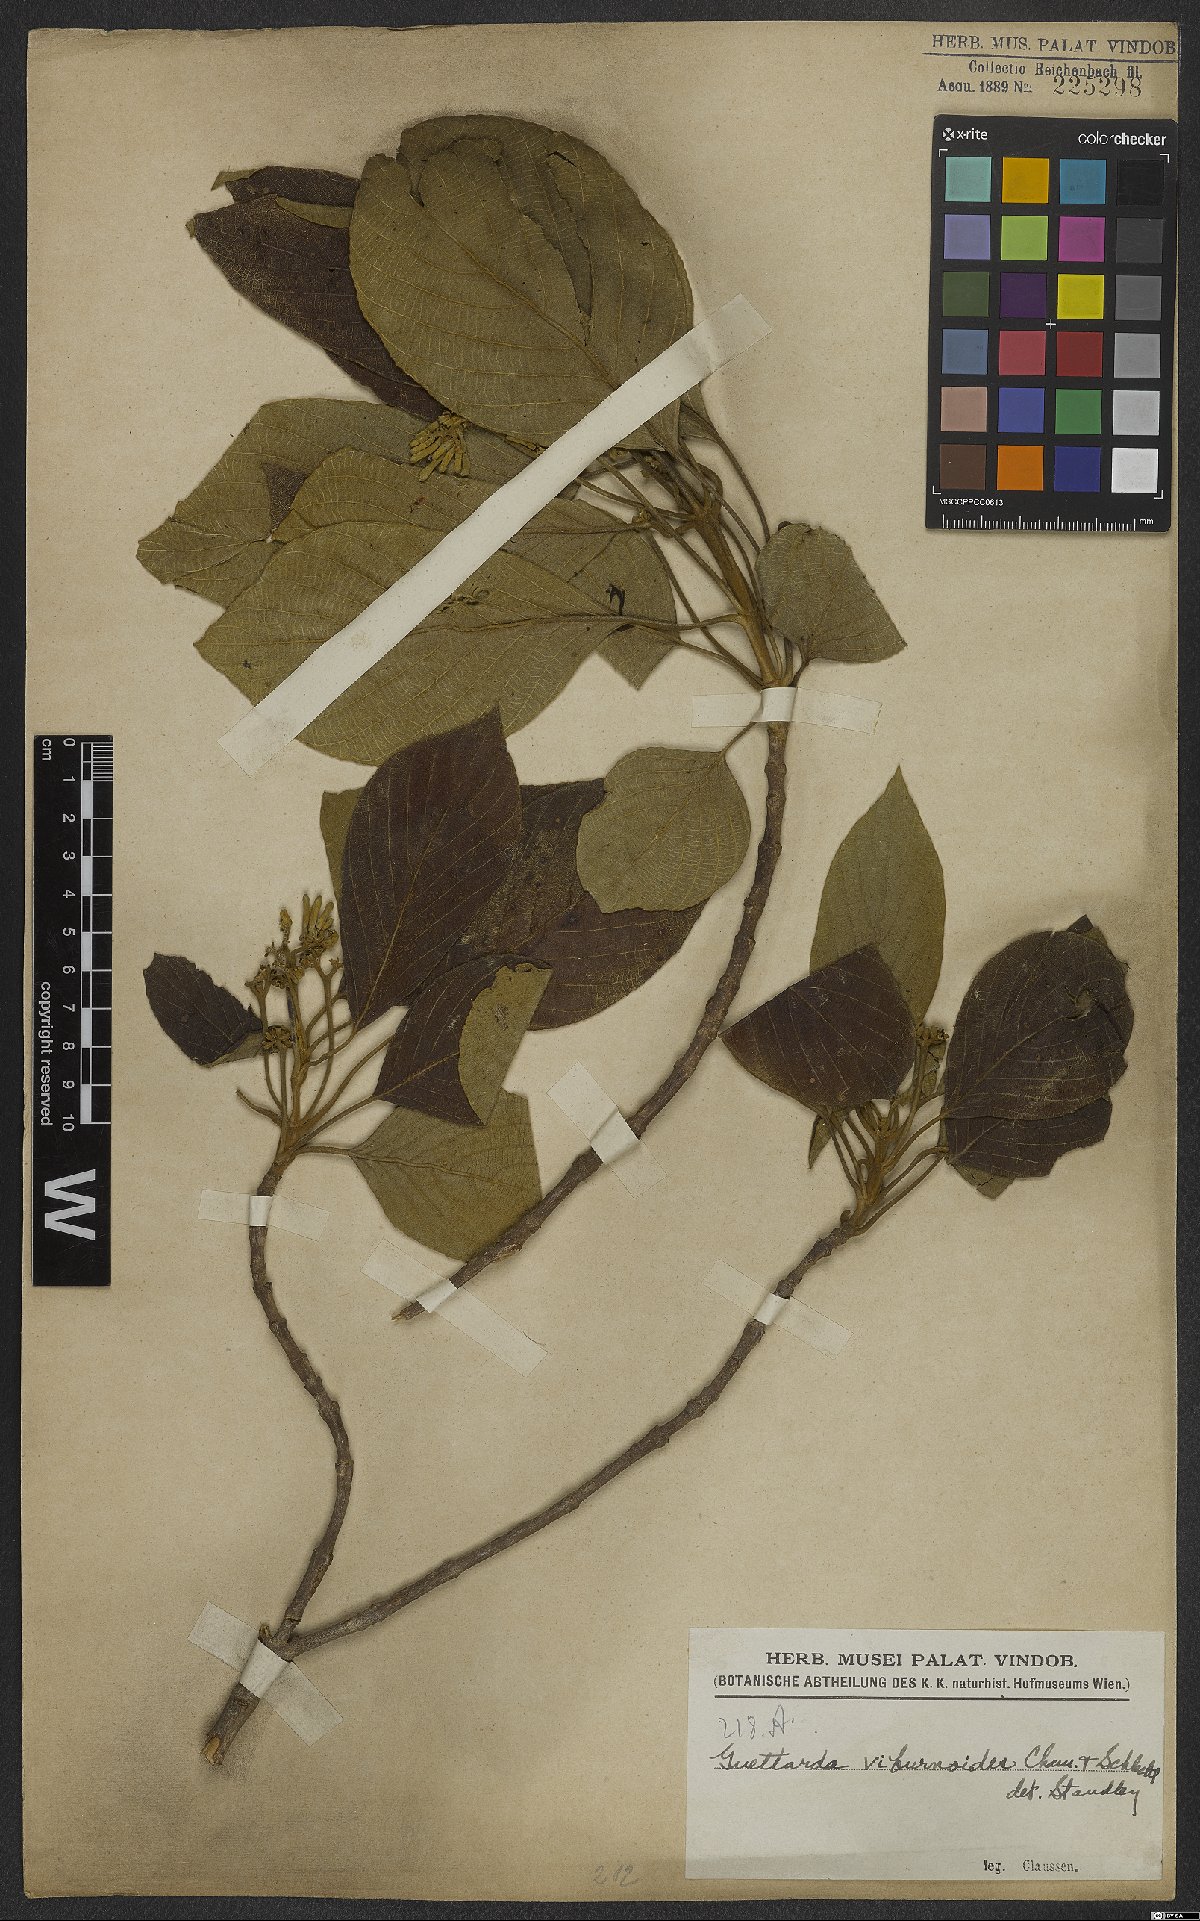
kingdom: Plantae
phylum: Tracheophyta
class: Magnoliopsida
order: Gentianales
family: Rubiaceae
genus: Guettarda
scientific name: Guettarda viburnoides
